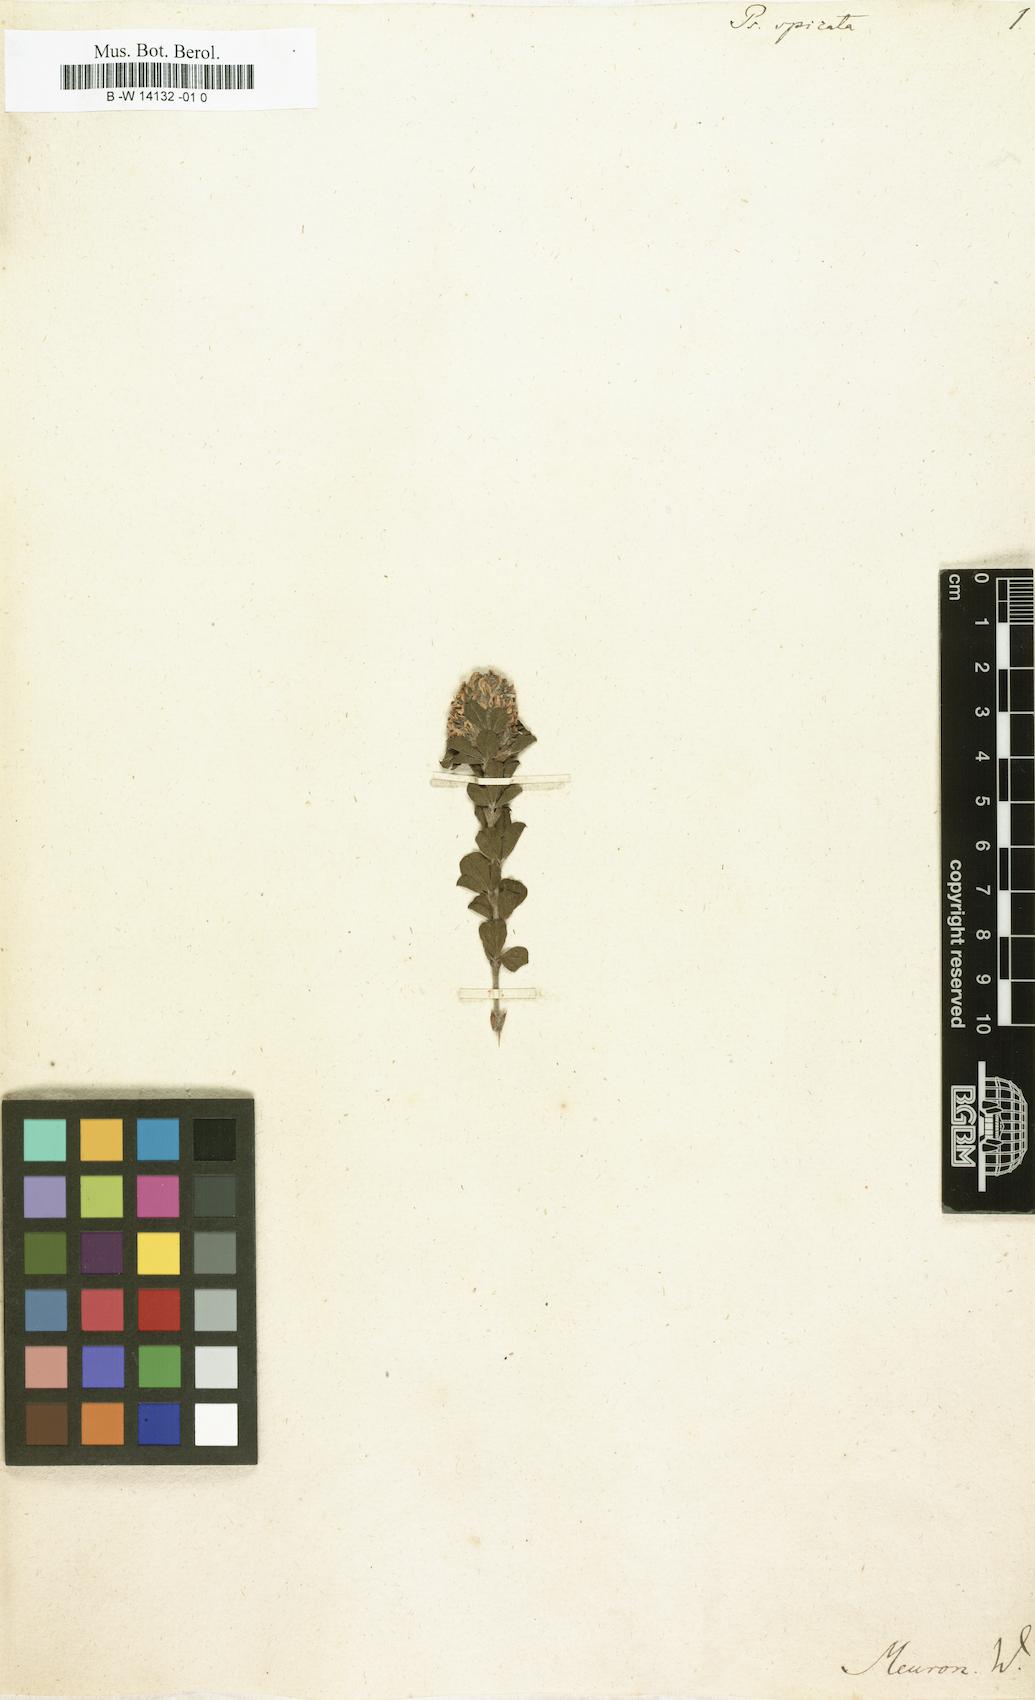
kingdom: Plantae
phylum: Tracheophyta
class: Magnoliopsida
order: Fabales
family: Fabaceae
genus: Psoralea
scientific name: Psoralea spicata
